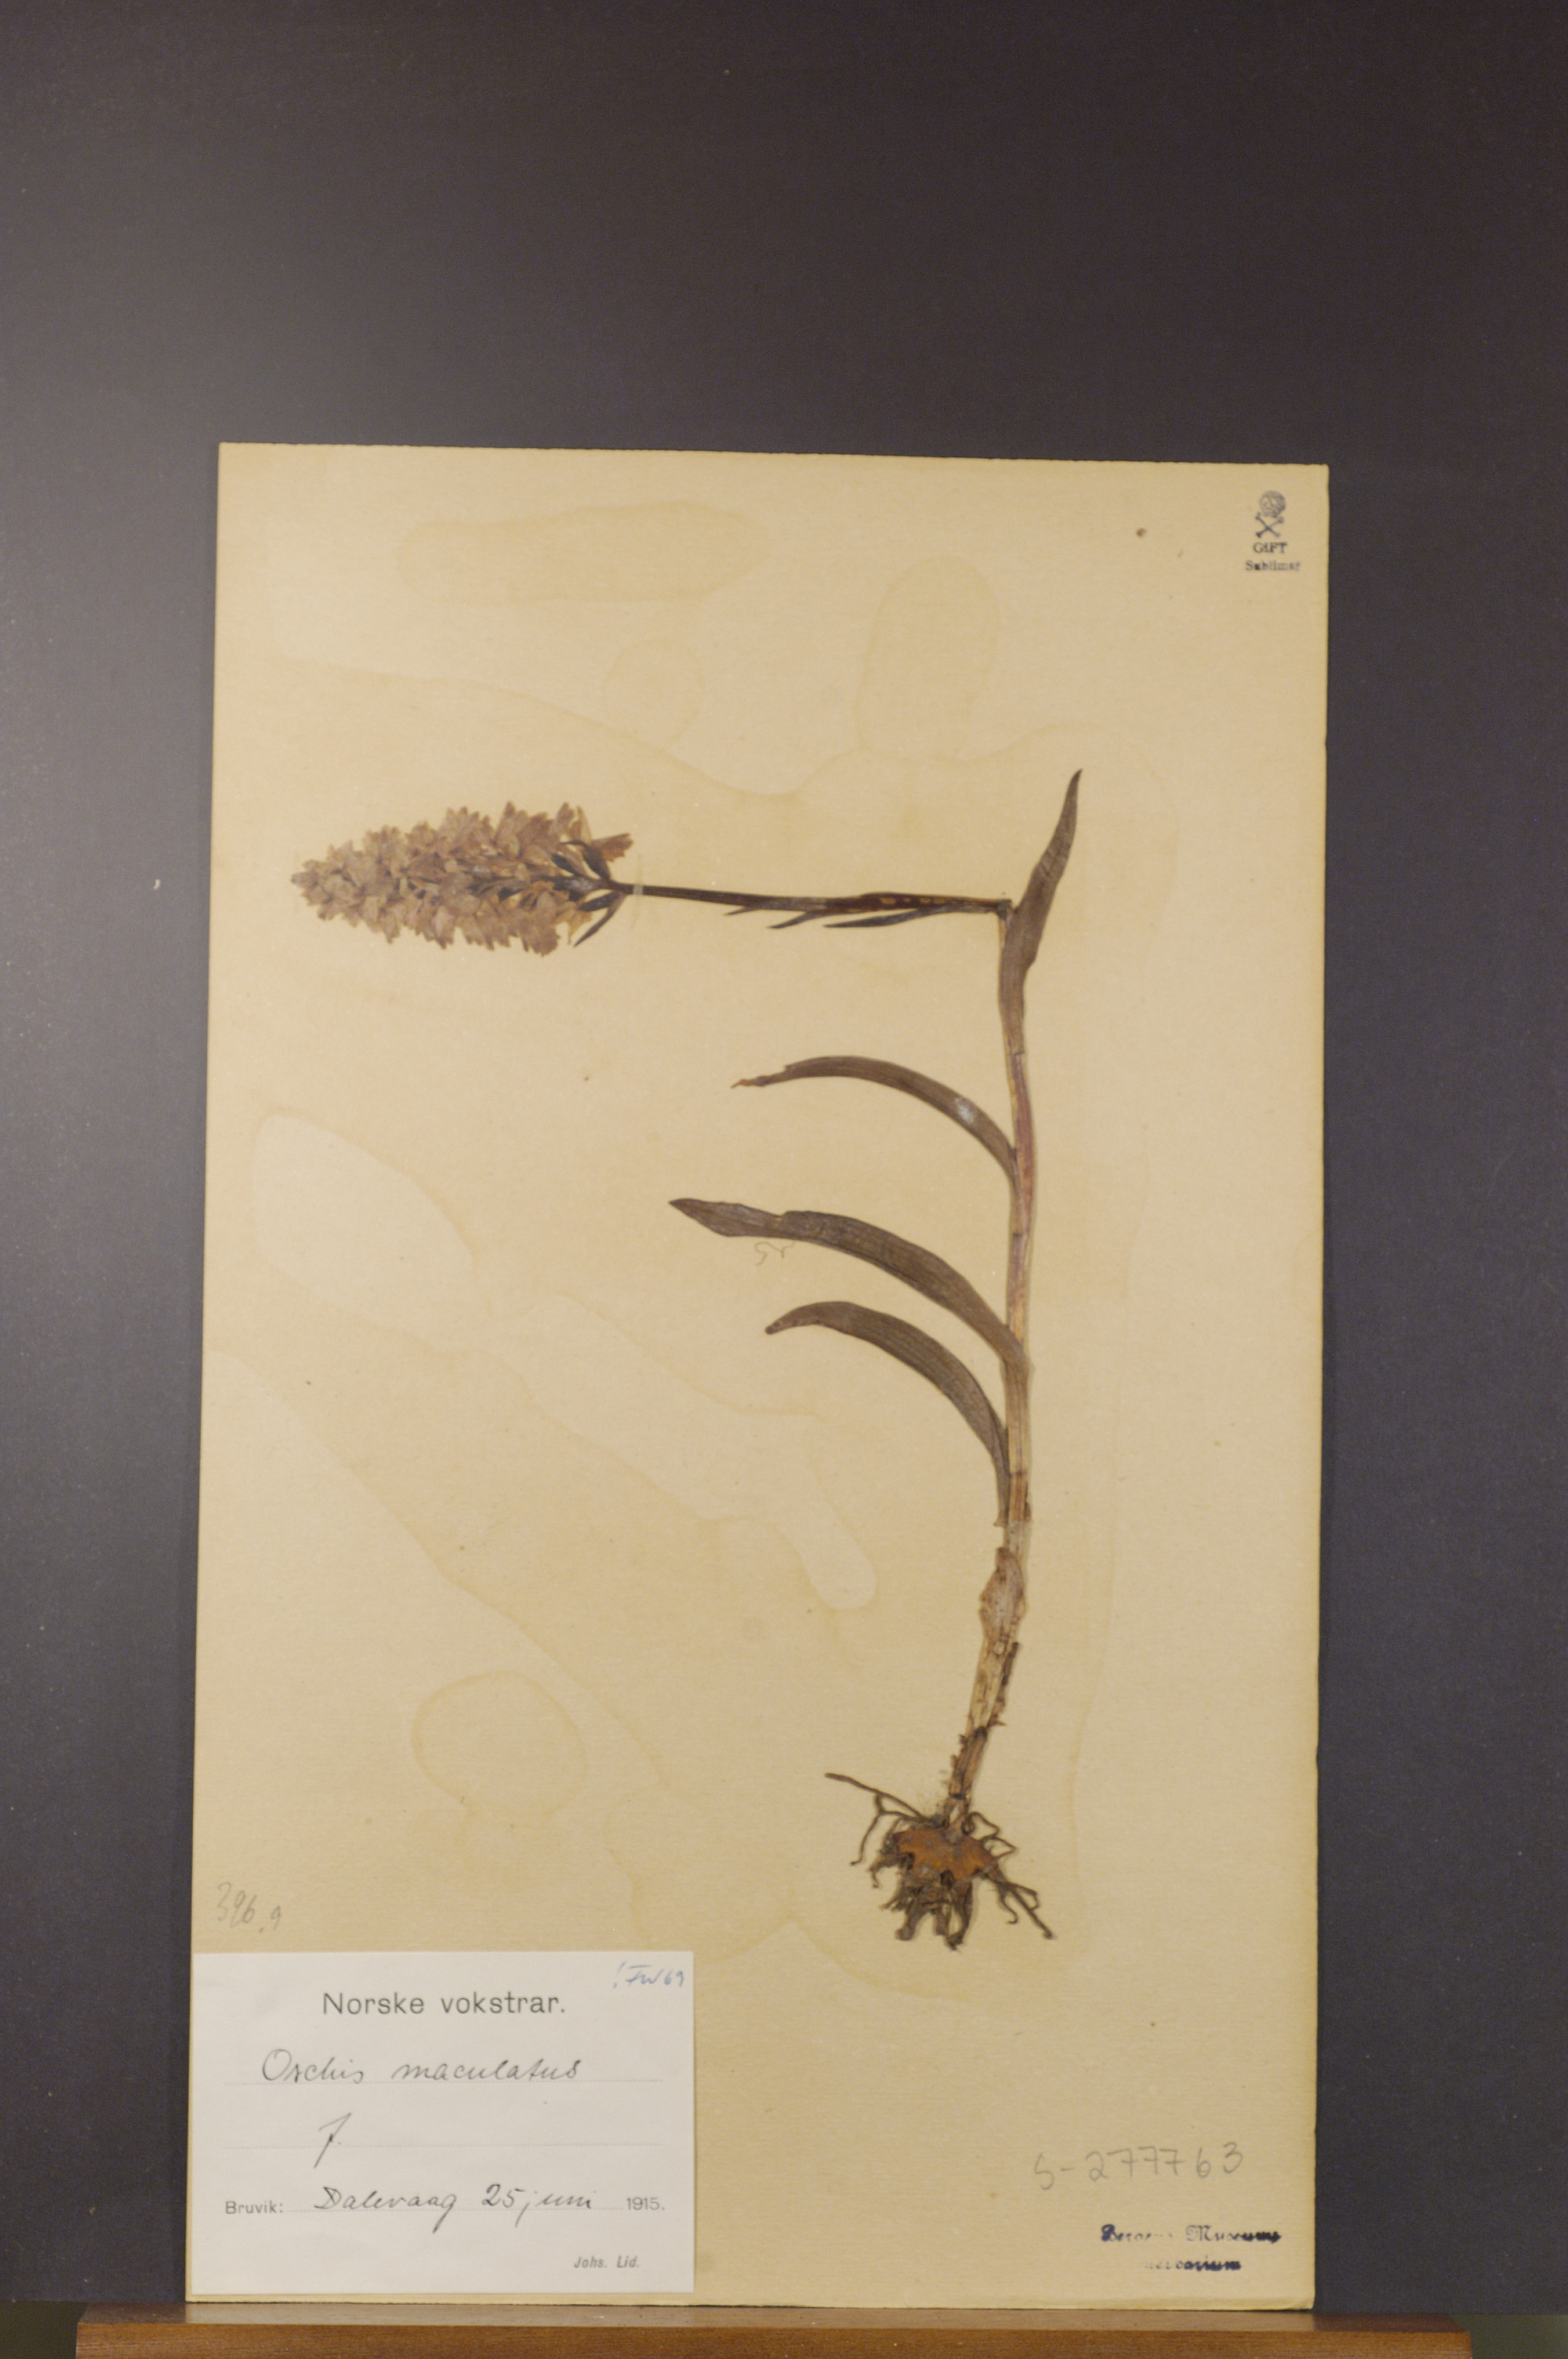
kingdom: Plantae
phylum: Tracheophyta
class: Liliopsida
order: Asparagales
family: Orchidaceae
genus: Dactylorhiza
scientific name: Dactylorhiza maculata
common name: Heath spotted-orchid
